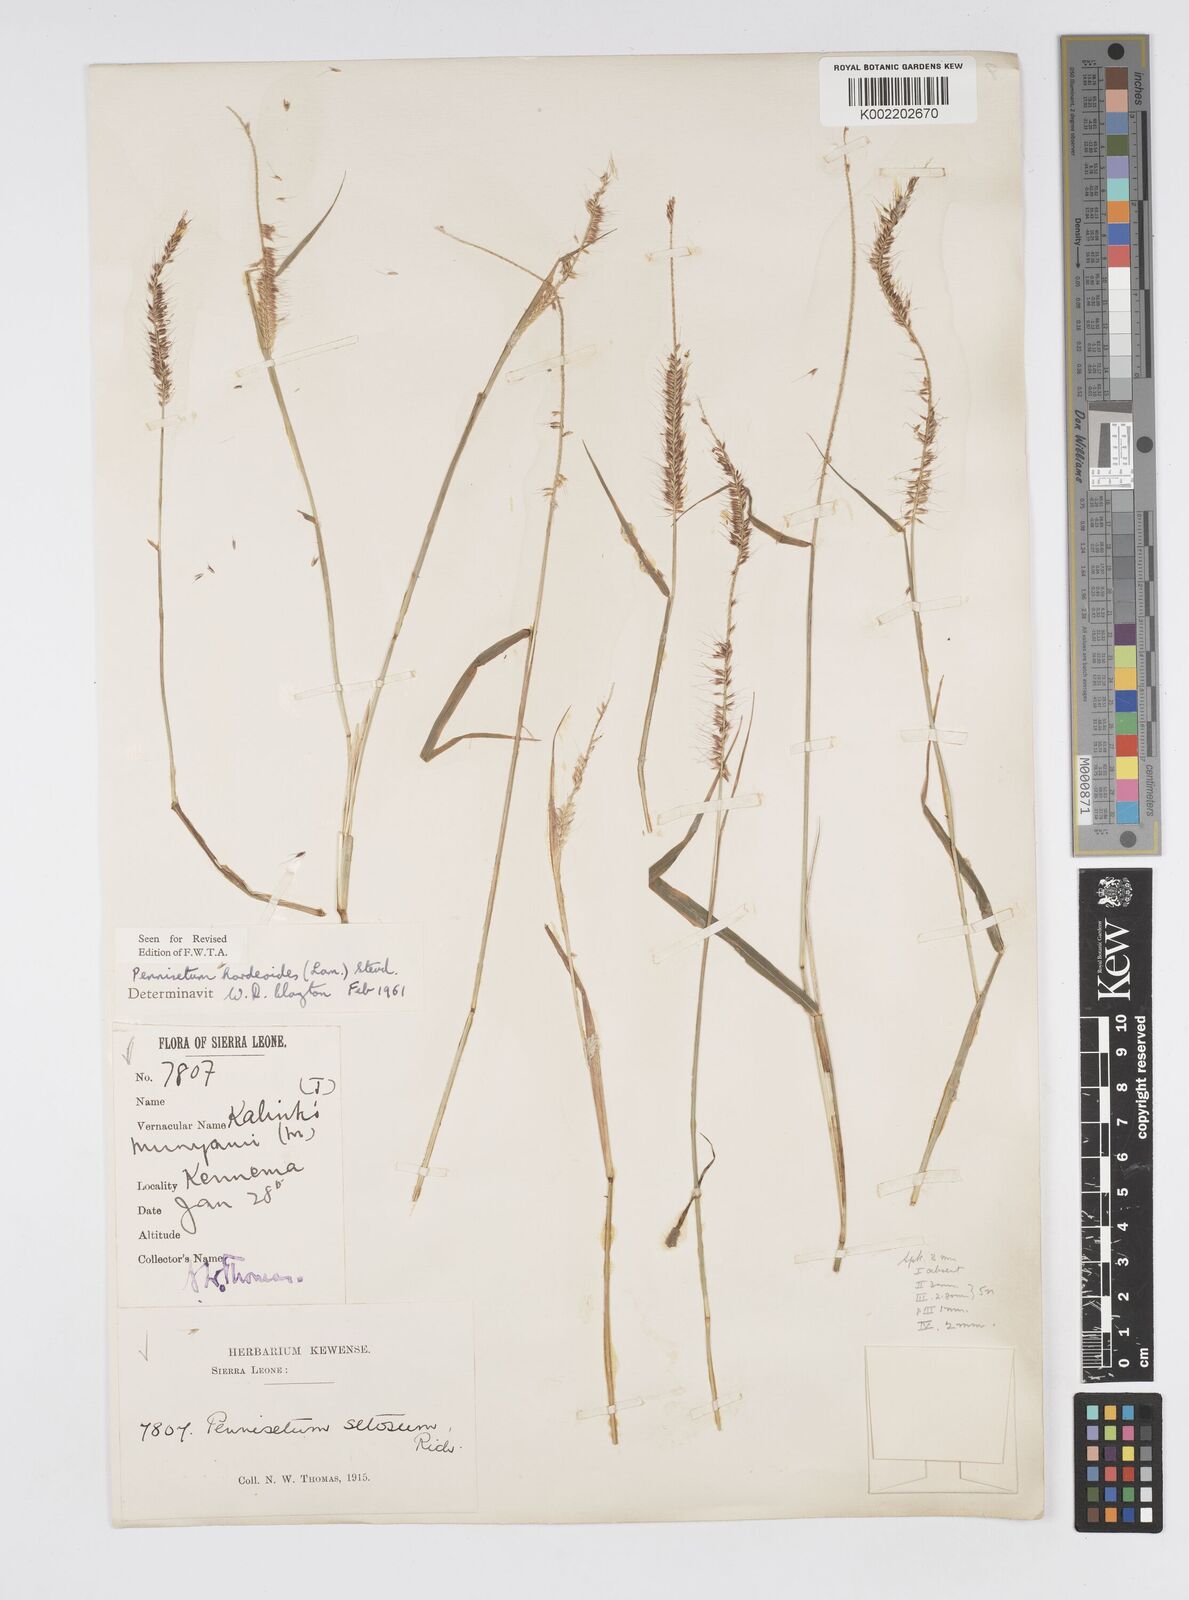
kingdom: Plantae
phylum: Tracheophyta
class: Liliopsida
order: Poales
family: Poaceae
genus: Cenchrus
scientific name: Cenchrus hordeoides
